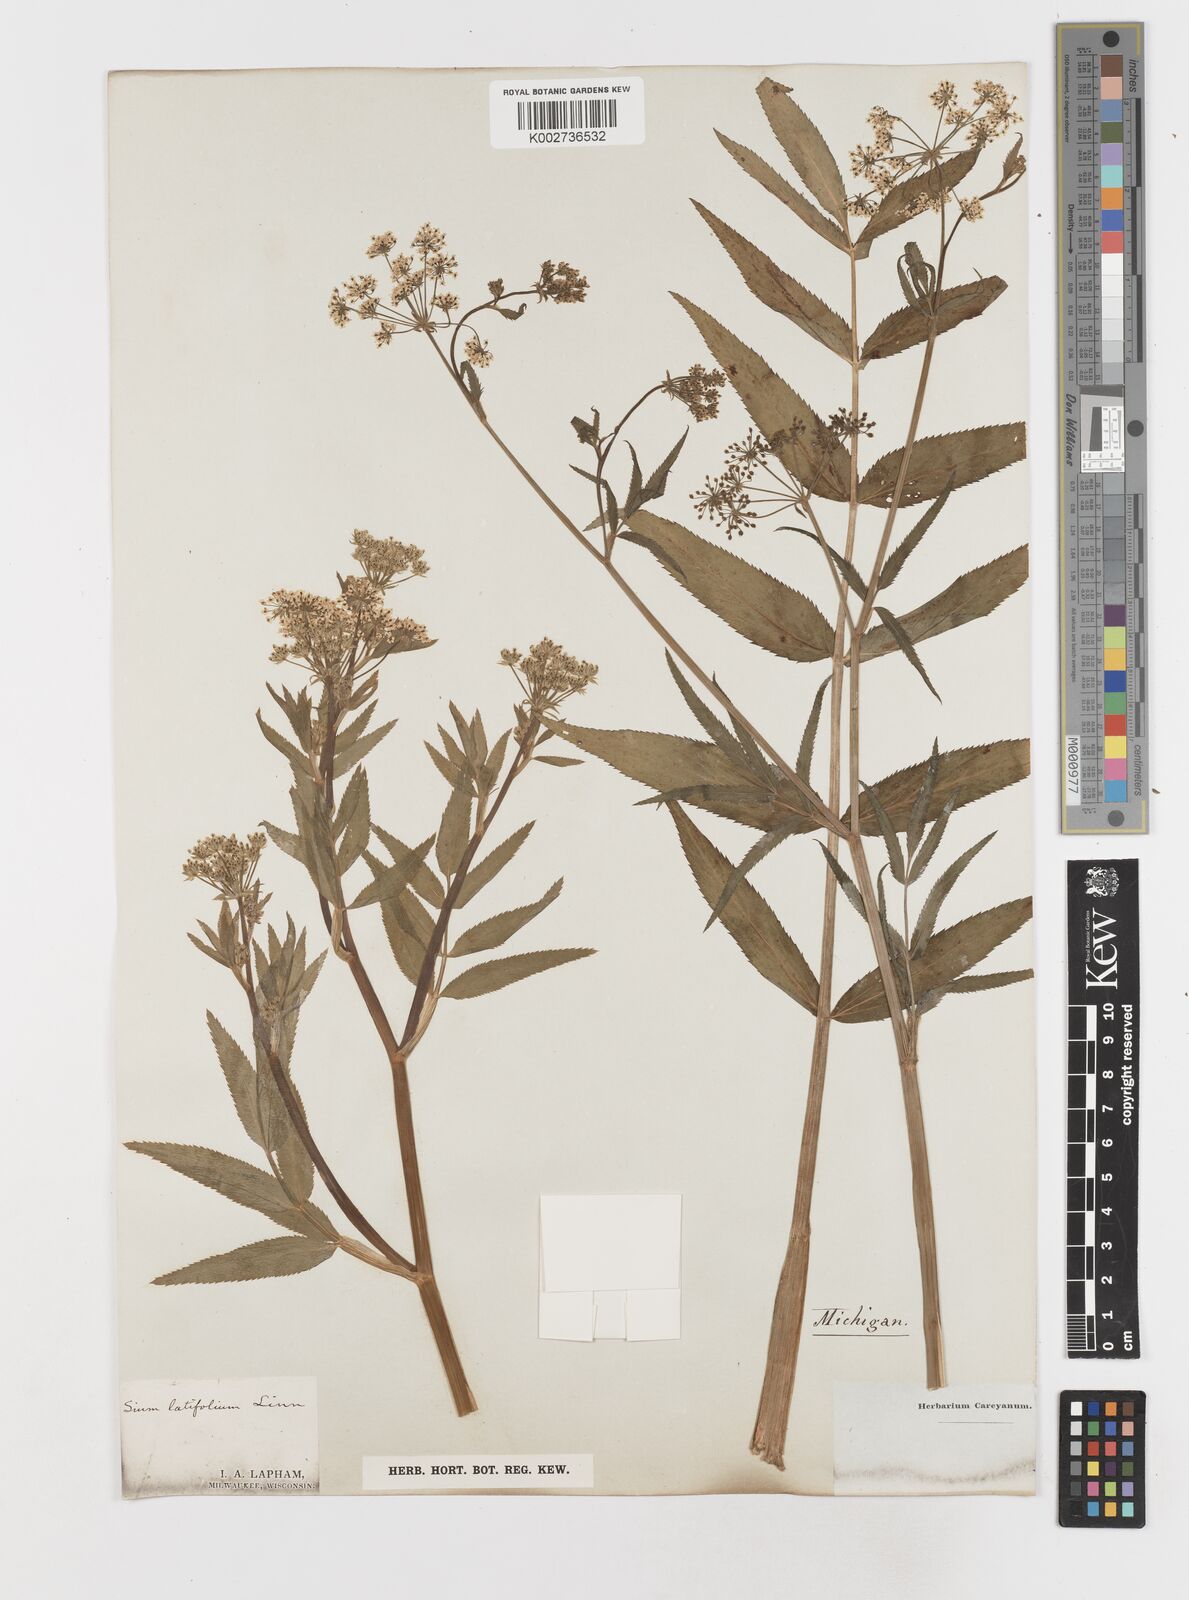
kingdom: Plantae
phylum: Tracheophyta
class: Magnoliopsida
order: Apiales
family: Apiaceae
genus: Sium
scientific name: Sium suave
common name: Hemlock water-parsnip
